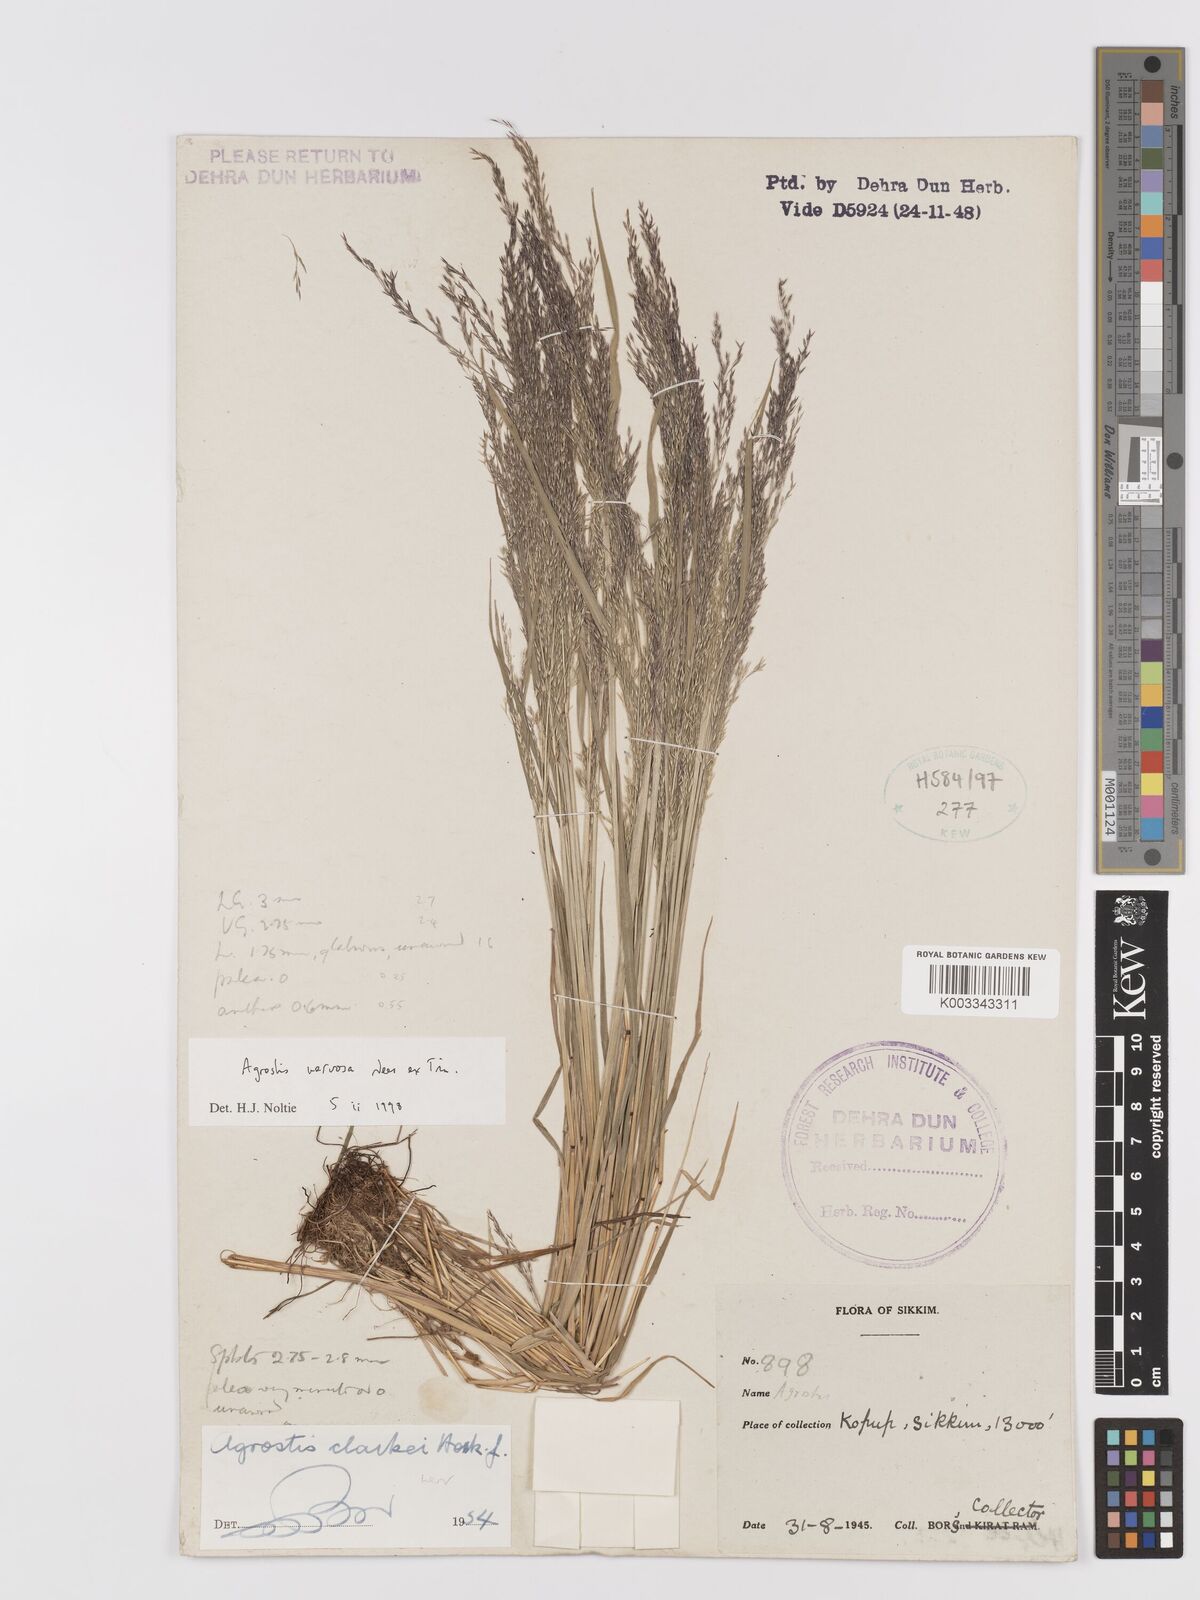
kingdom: Plantae
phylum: Tracheophyta
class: Liliopsida
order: Poales
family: Poaceae
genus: Agrostis
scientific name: Agrostis nervosa
